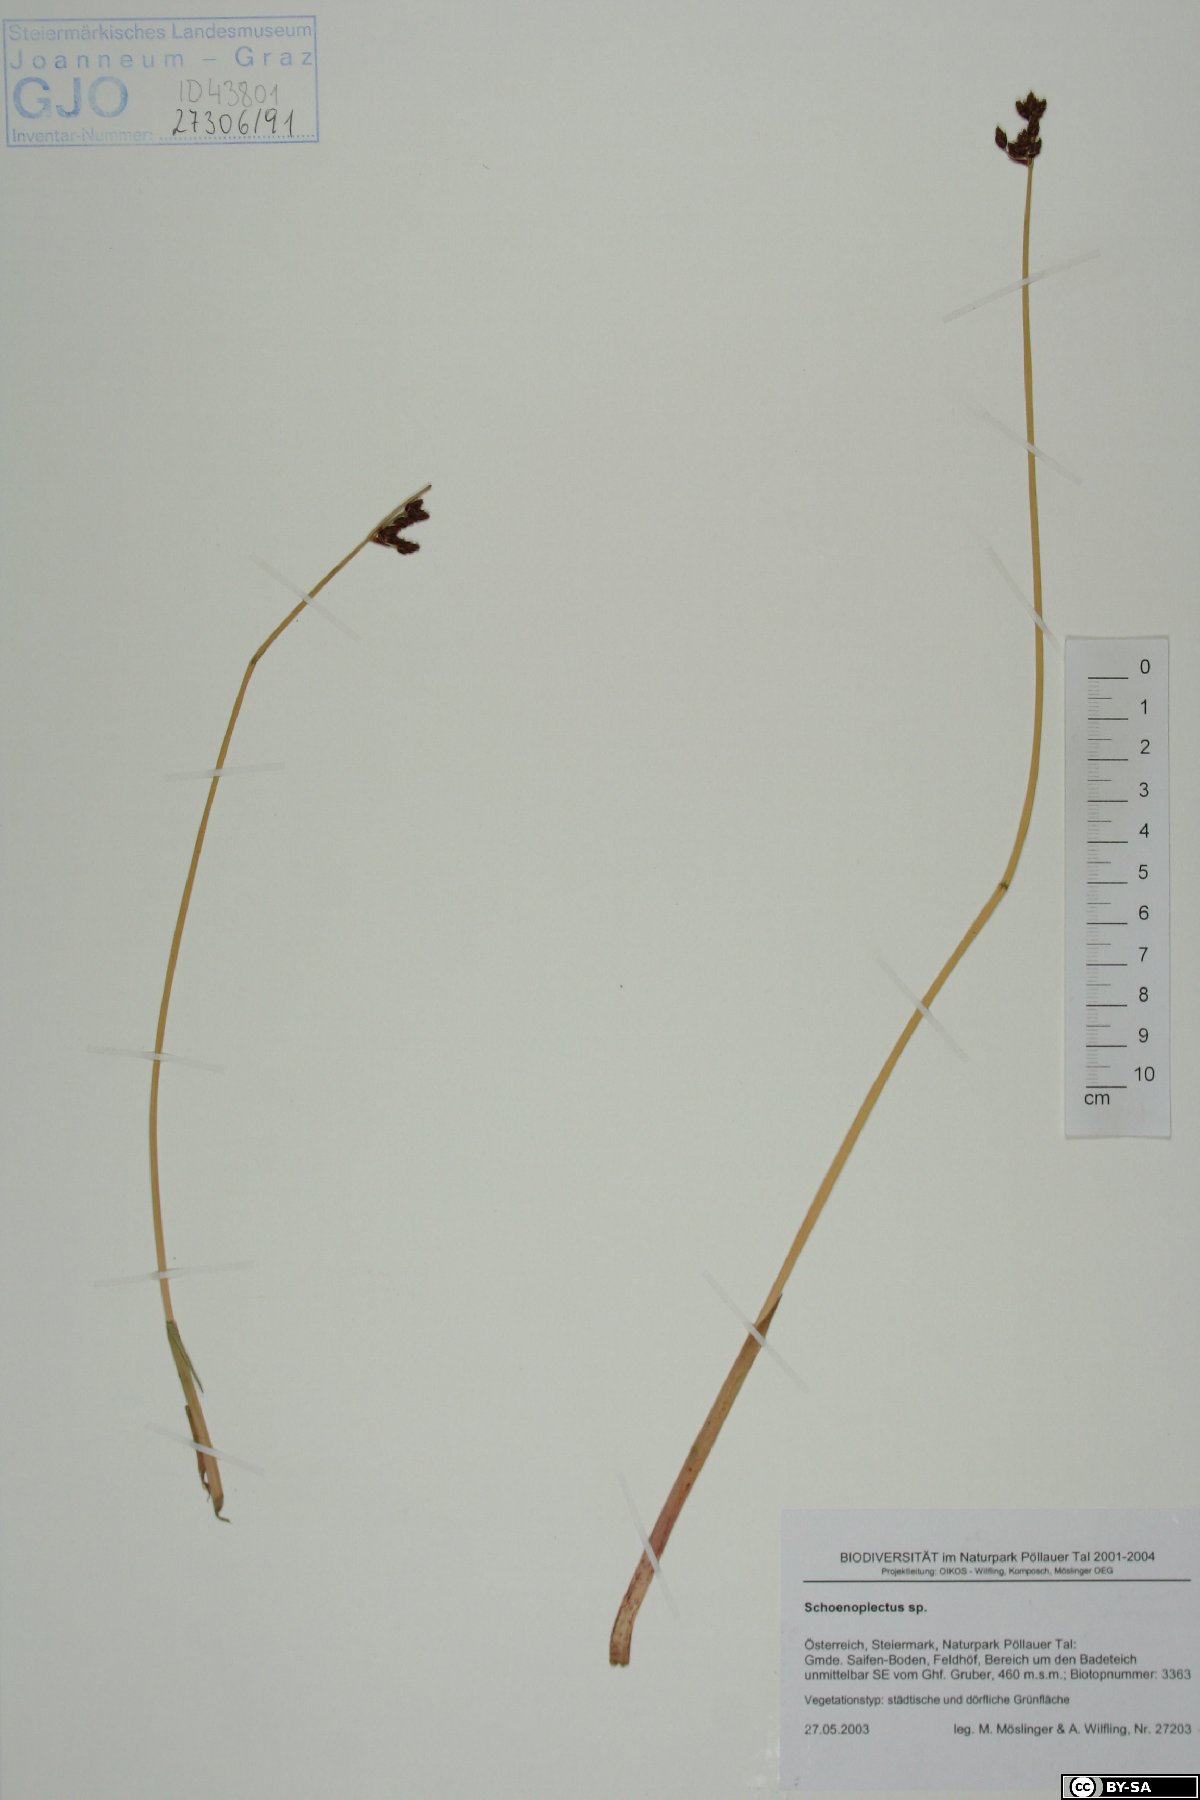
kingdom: Plantae
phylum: Tracheophyta
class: Liliopsida
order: Poales
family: Cyperaceae
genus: Schoenoplectus
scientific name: Schoenoplectus
